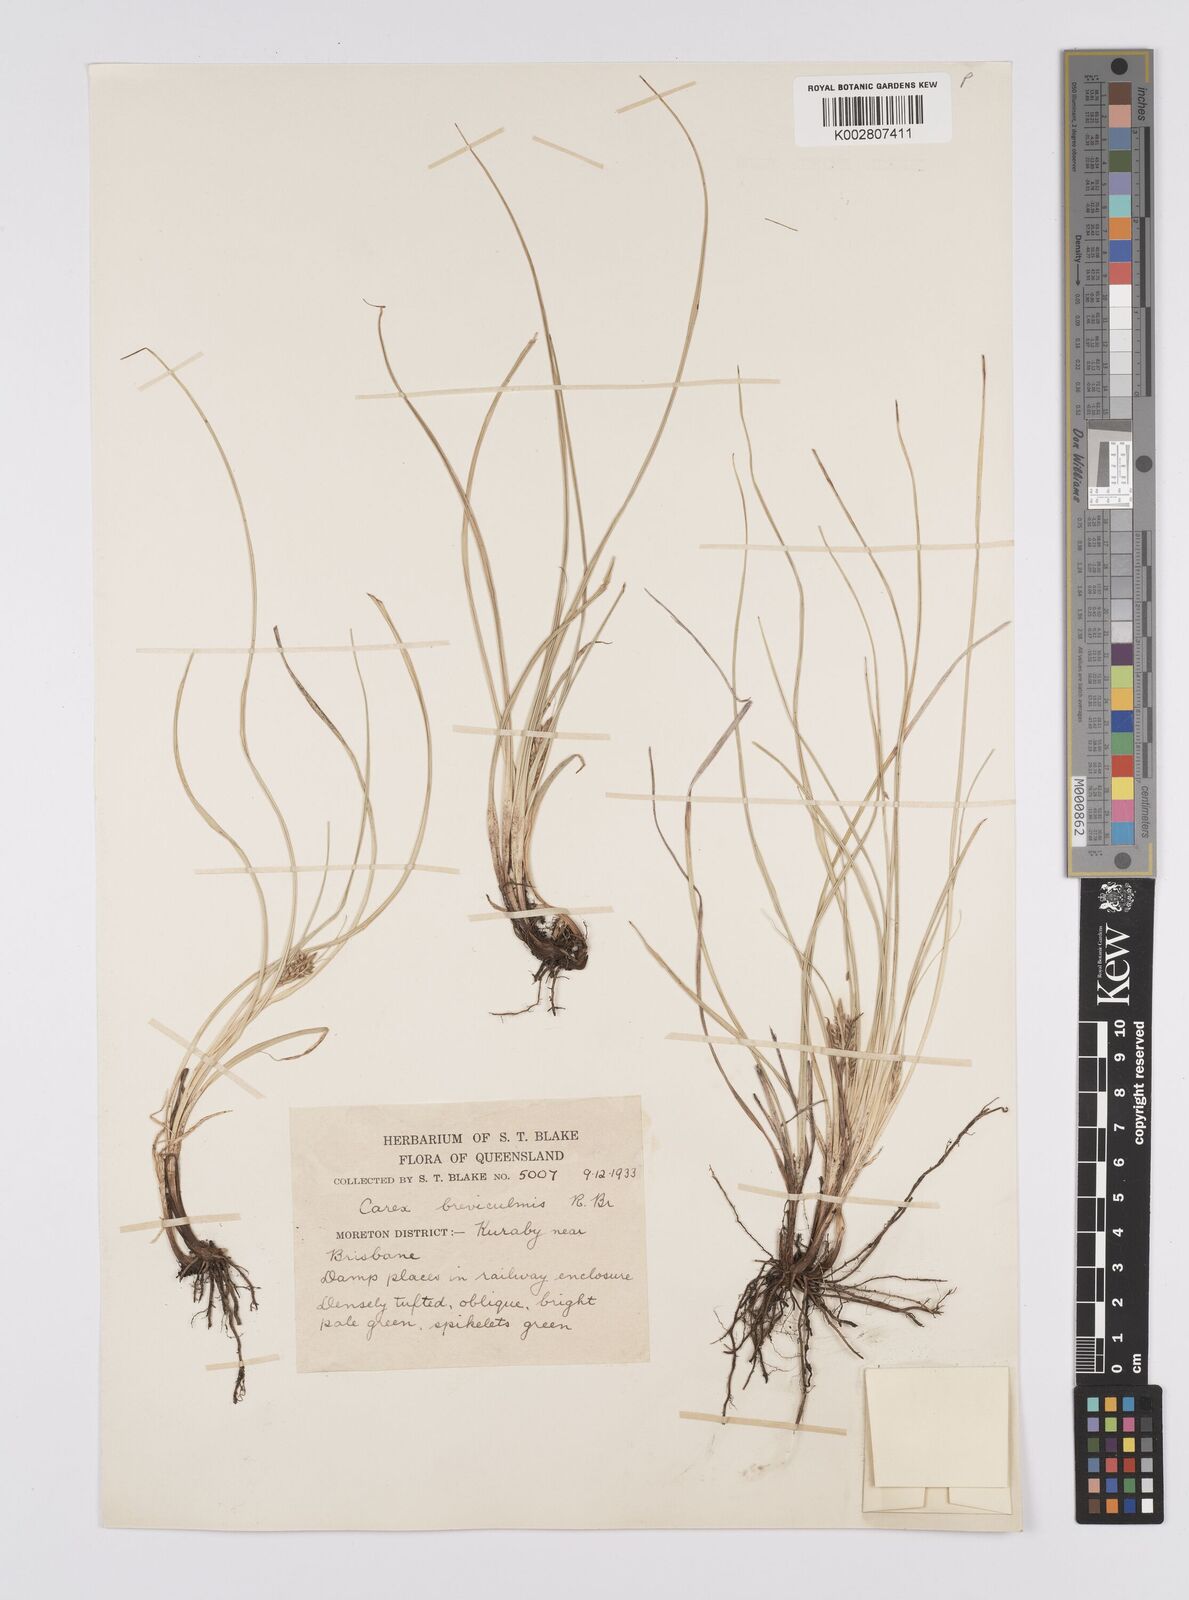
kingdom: Plantae
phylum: Tracheophyta
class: Liliopsida
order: Poales
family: Cyperaceae
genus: Carex
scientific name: Carex breviculmis
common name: Asian shortstem sedge
